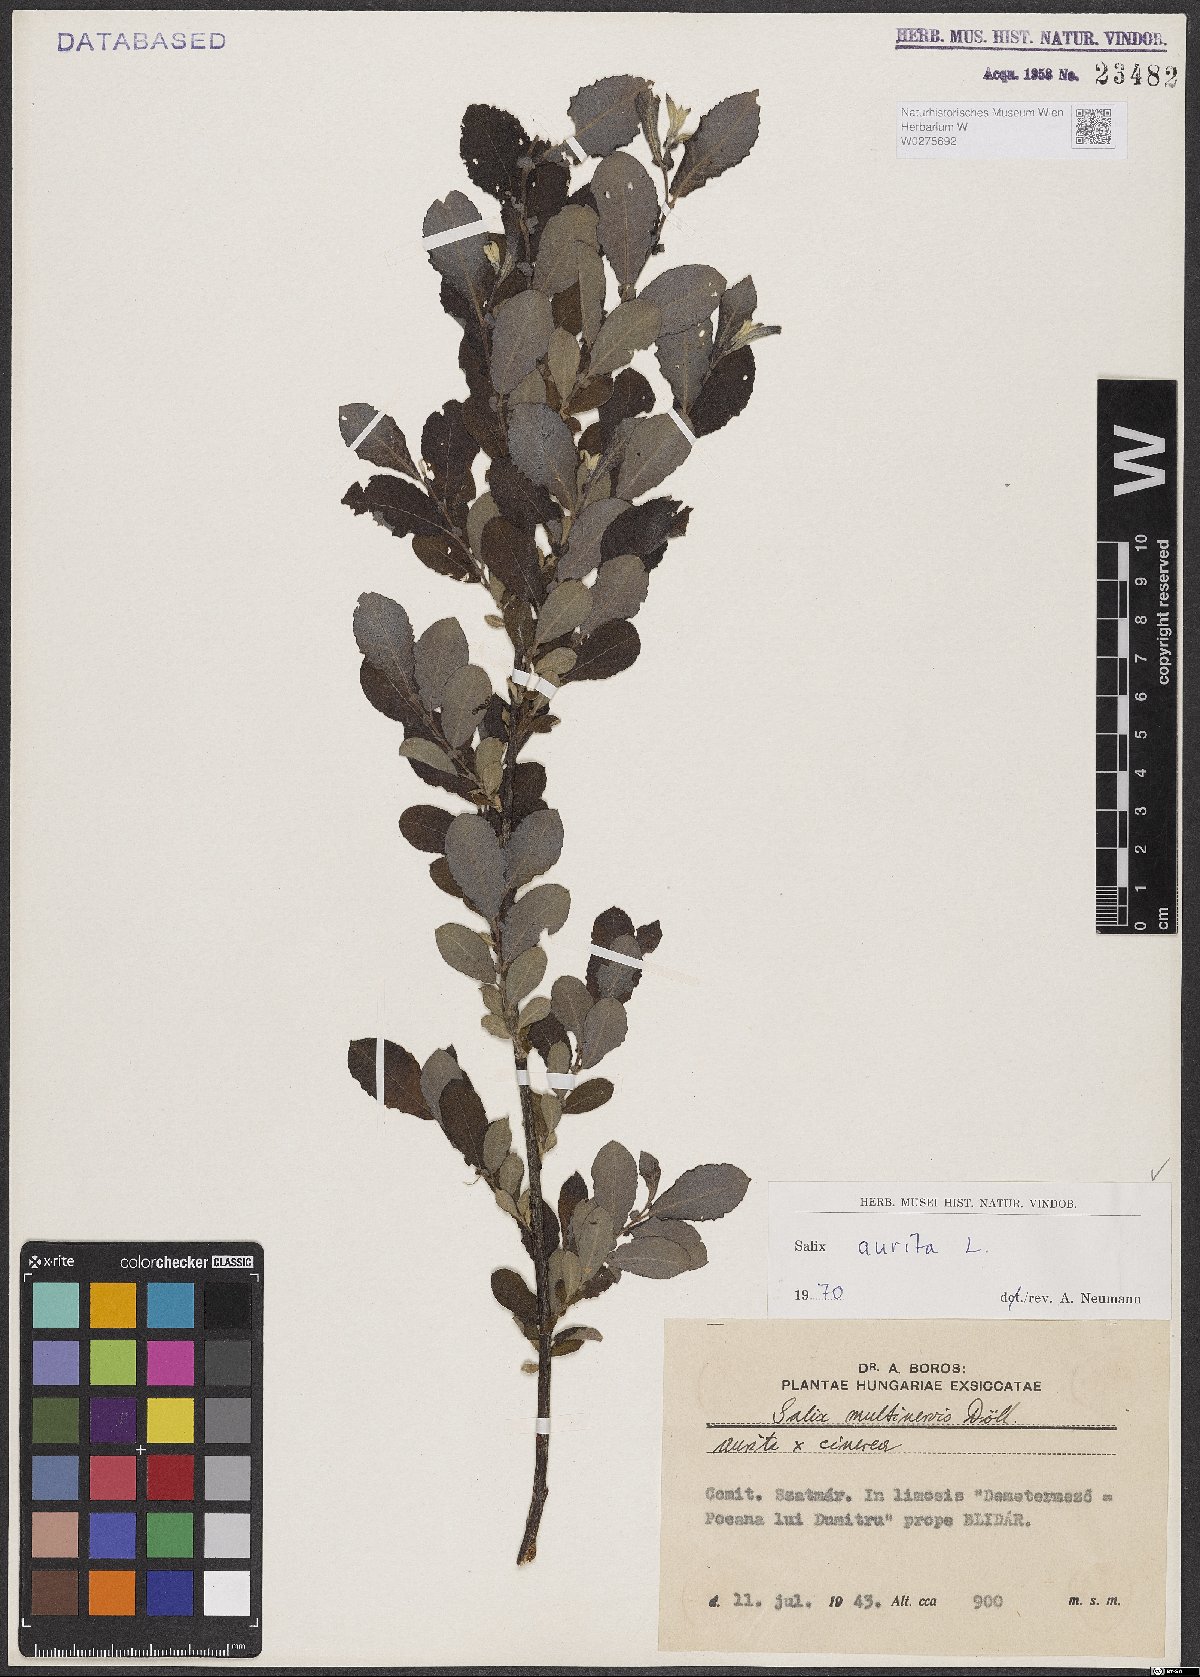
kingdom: Plantae
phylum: Tracheophyta
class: Magnoliopsida
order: Malpighiales
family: Salicaceae
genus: Salix
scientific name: Salix aurita
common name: Eared willow
